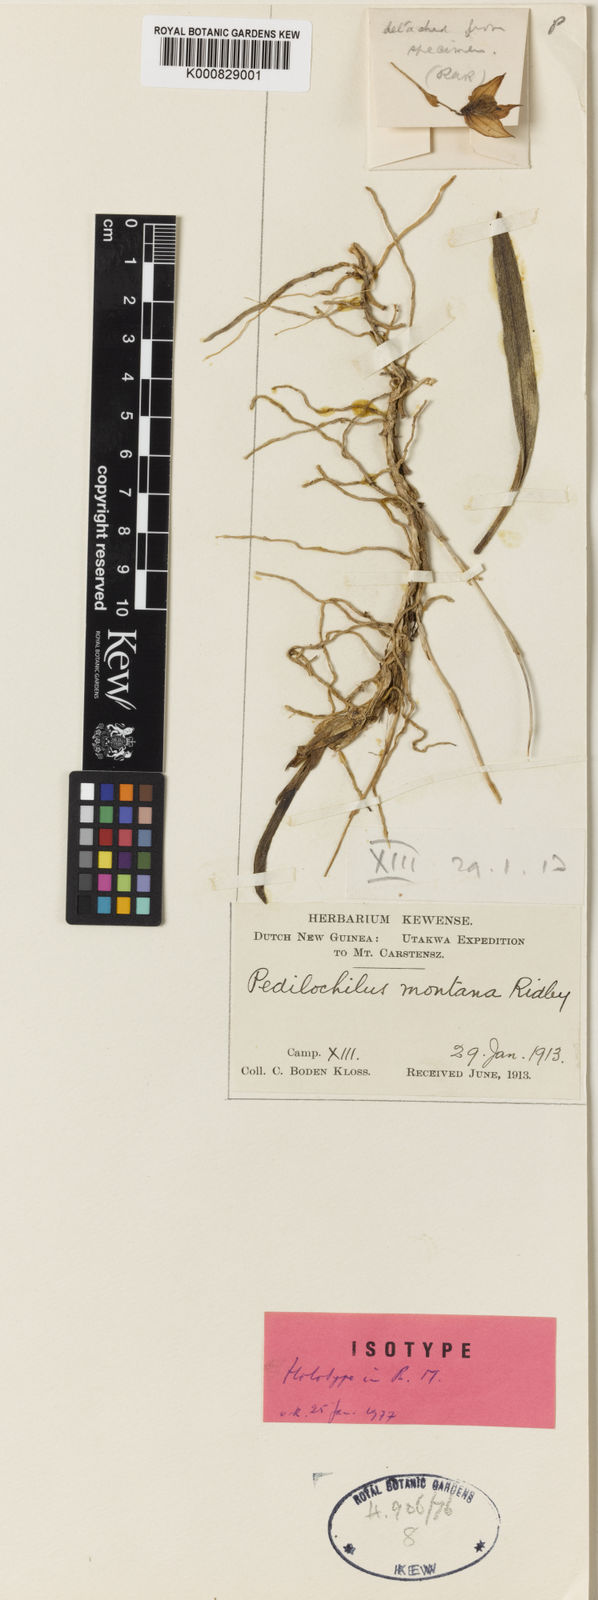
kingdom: Plantae
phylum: Tracheophyta
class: Liliopsida
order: Asparagales
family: Orchidaceae
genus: Bulbophyllum
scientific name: Bulbophyllum oreomene
